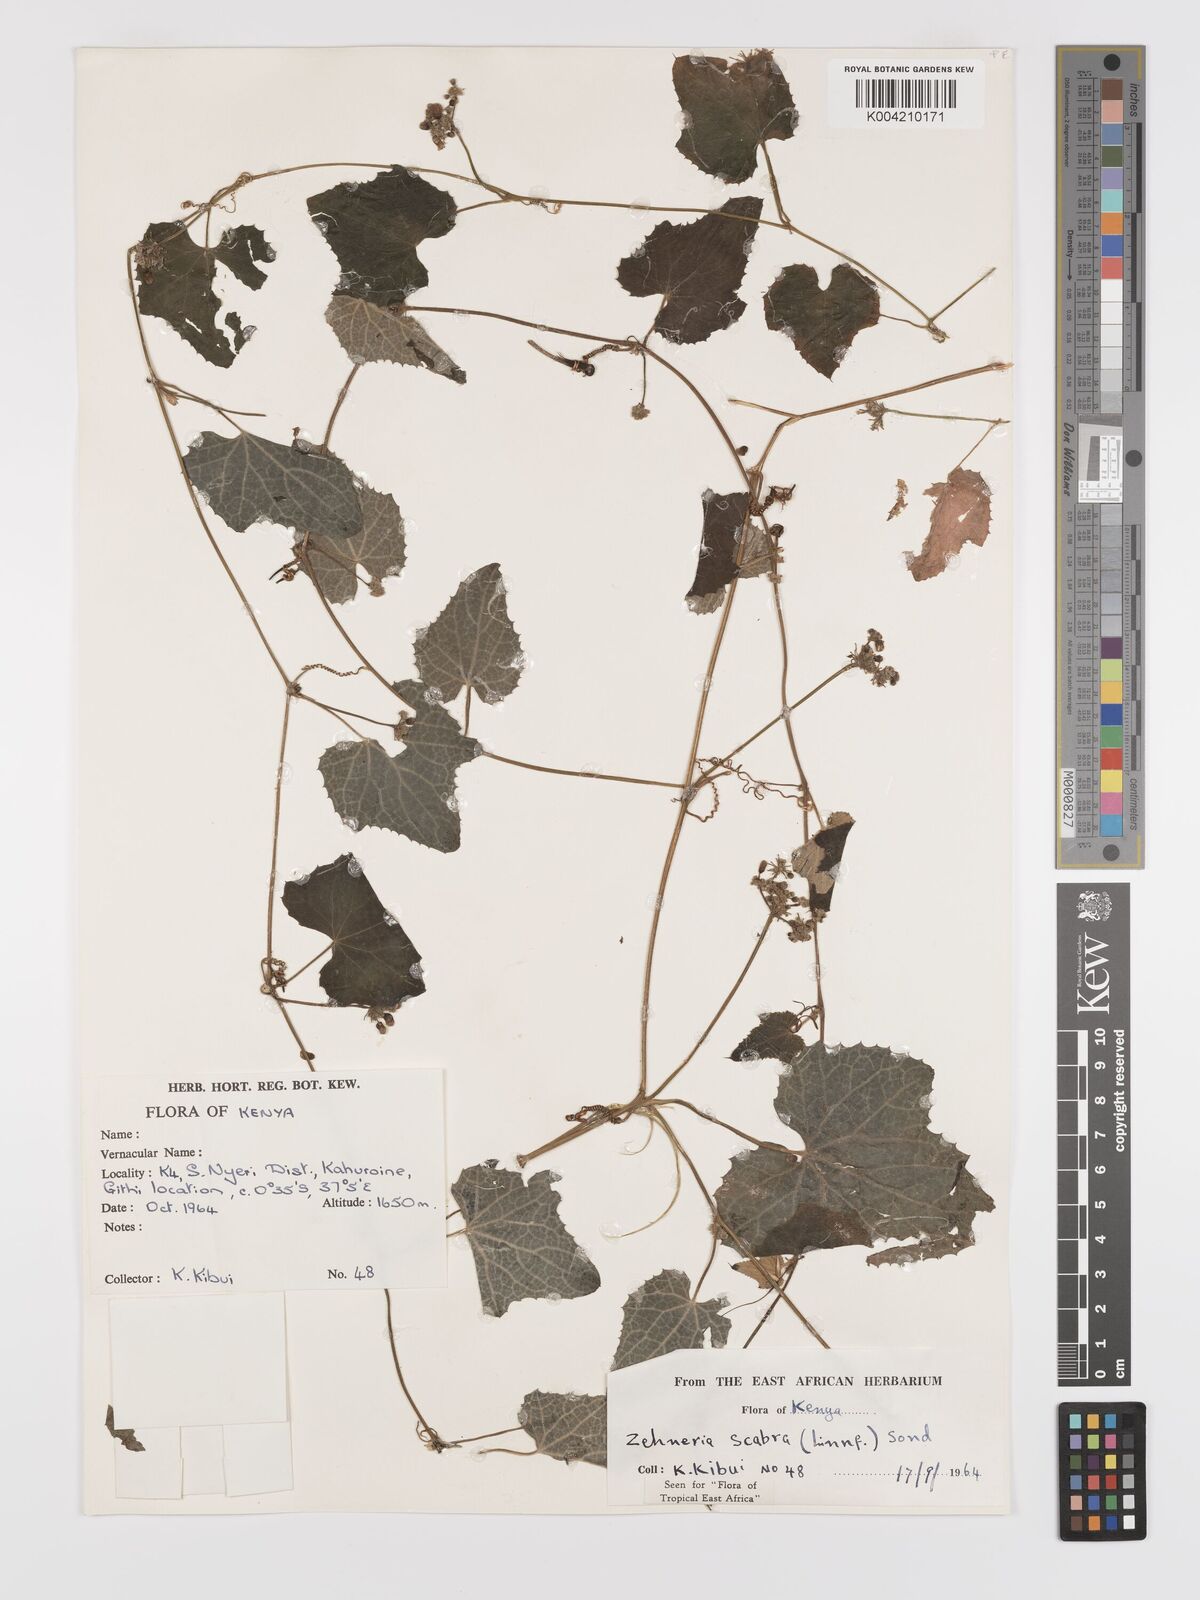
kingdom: Plantae
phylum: Tracheophyta
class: Magnoliopsida
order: Cucurbitales
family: Cucurbitaceae
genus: Zehneria
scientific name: Zehneria scabra
